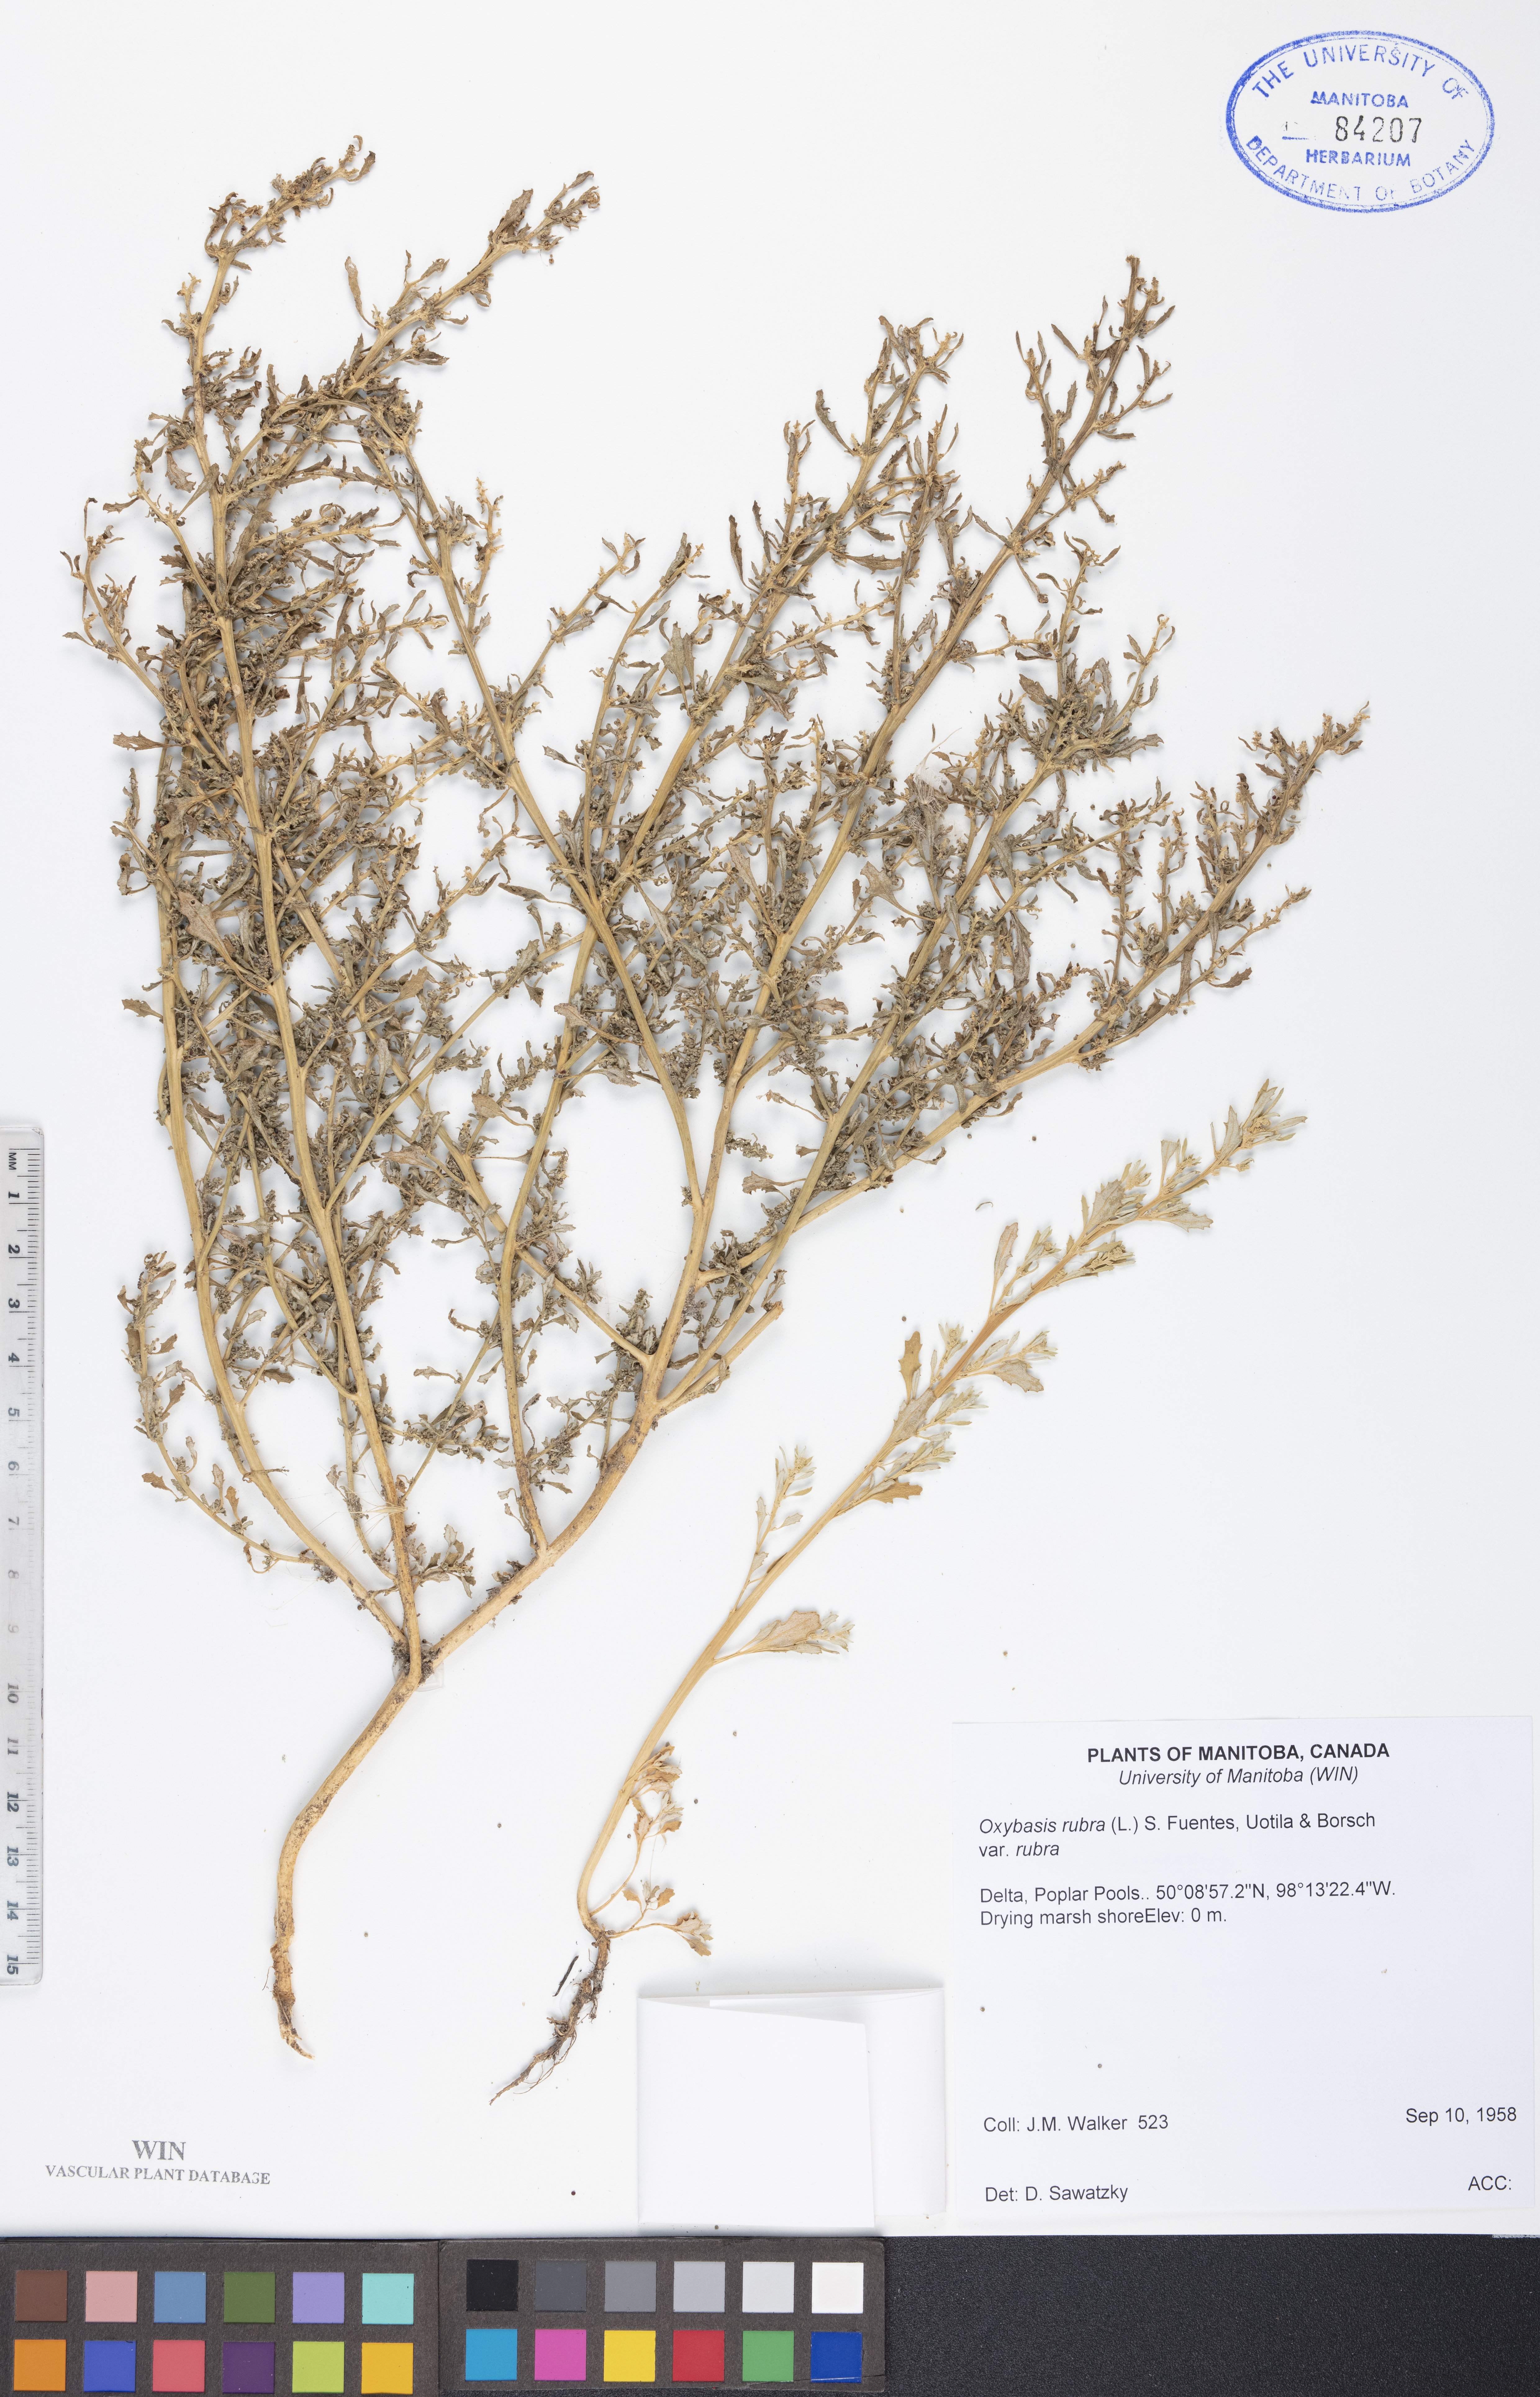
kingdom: Plantae
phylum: Tracheophyta
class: Magnoliopsida
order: Caryophyllales
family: Amaranthaceae
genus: Oxybasis
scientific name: Oxybasis rubra
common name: Red goosefoot
